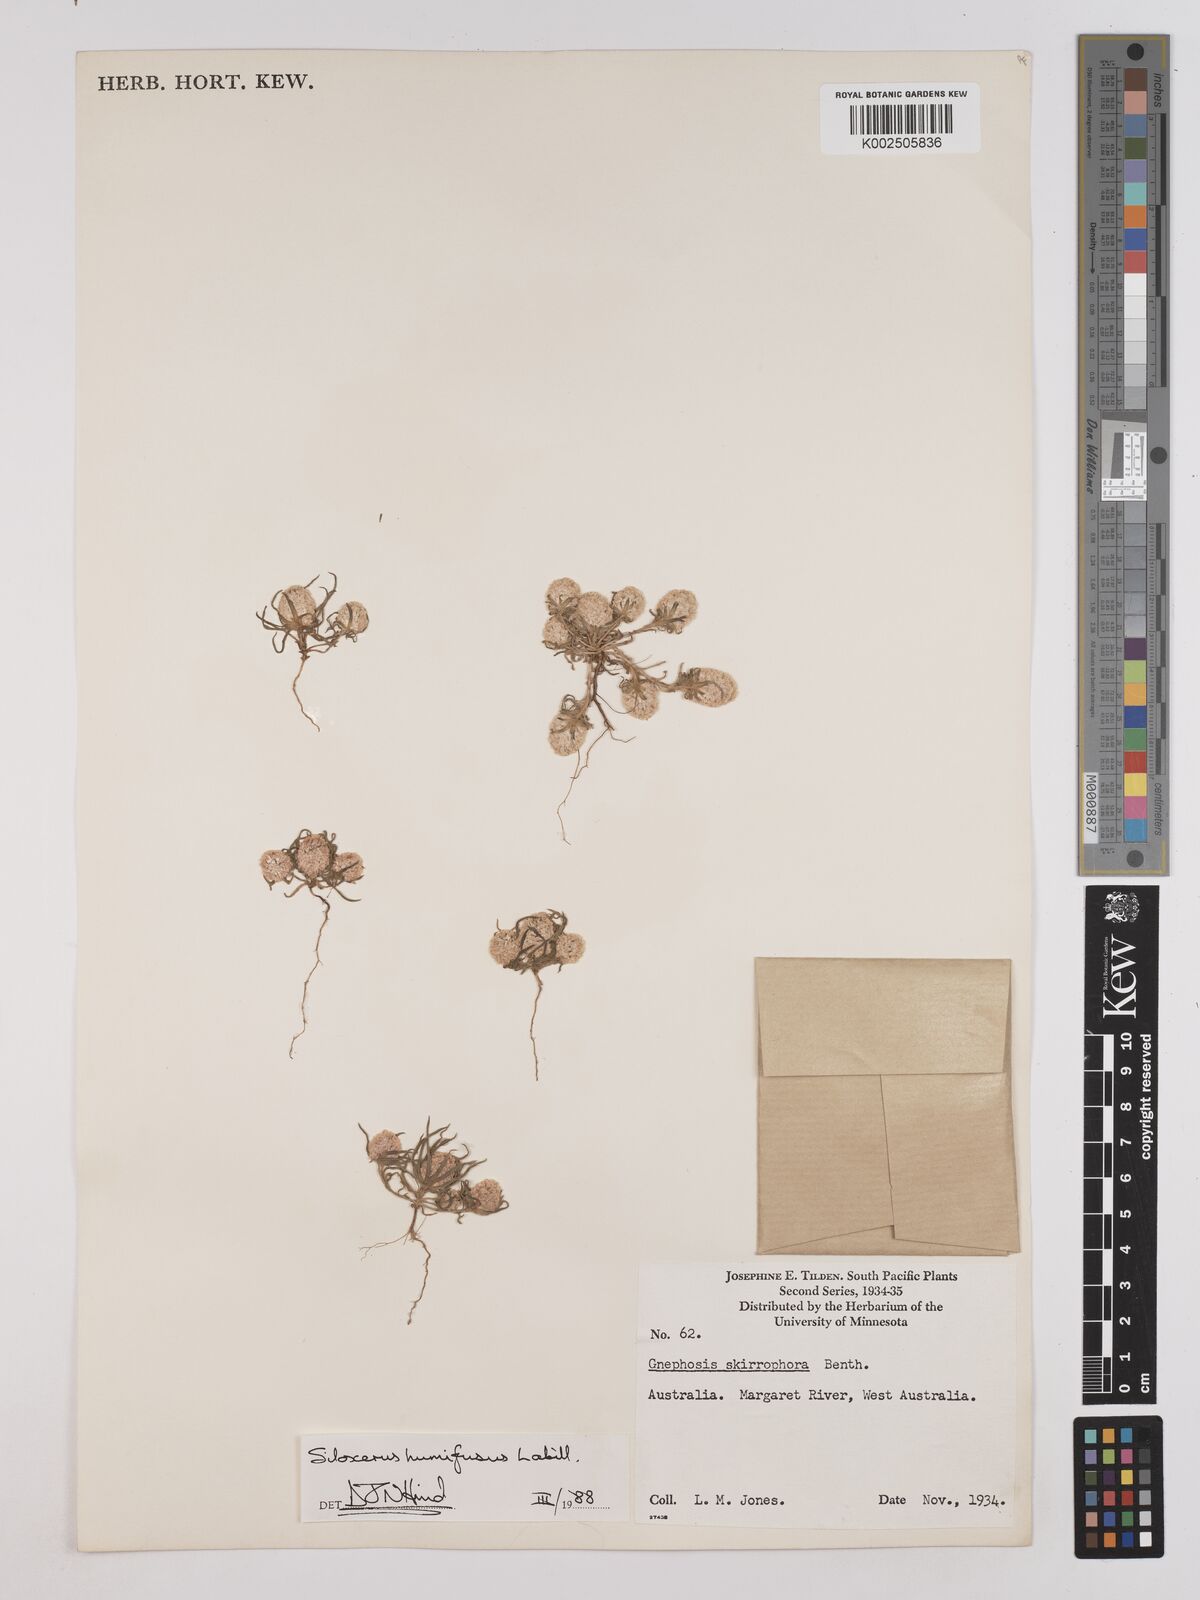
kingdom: Plantae
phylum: Tracheophyta
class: Magnoliopsida
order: Asterales
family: Asteraceae
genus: Siloxerus
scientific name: Siloxerus humifusus
